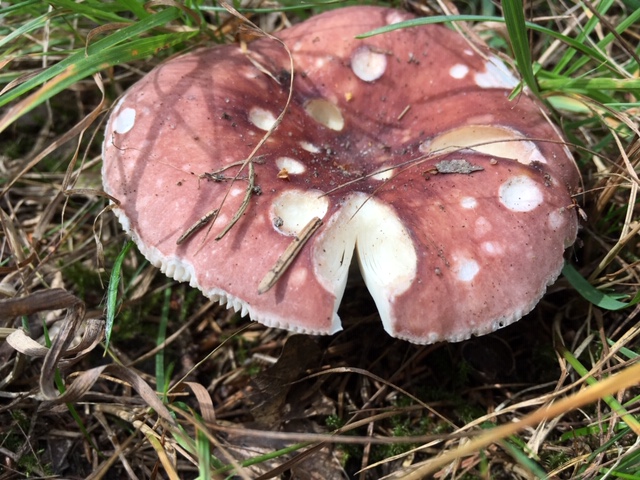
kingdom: Fungi
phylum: Basidiomycota
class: Agaricomycetes
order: Russulales
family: Russulaceae
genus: Russula
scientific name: Russula vesca
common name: spiselig skørhat
